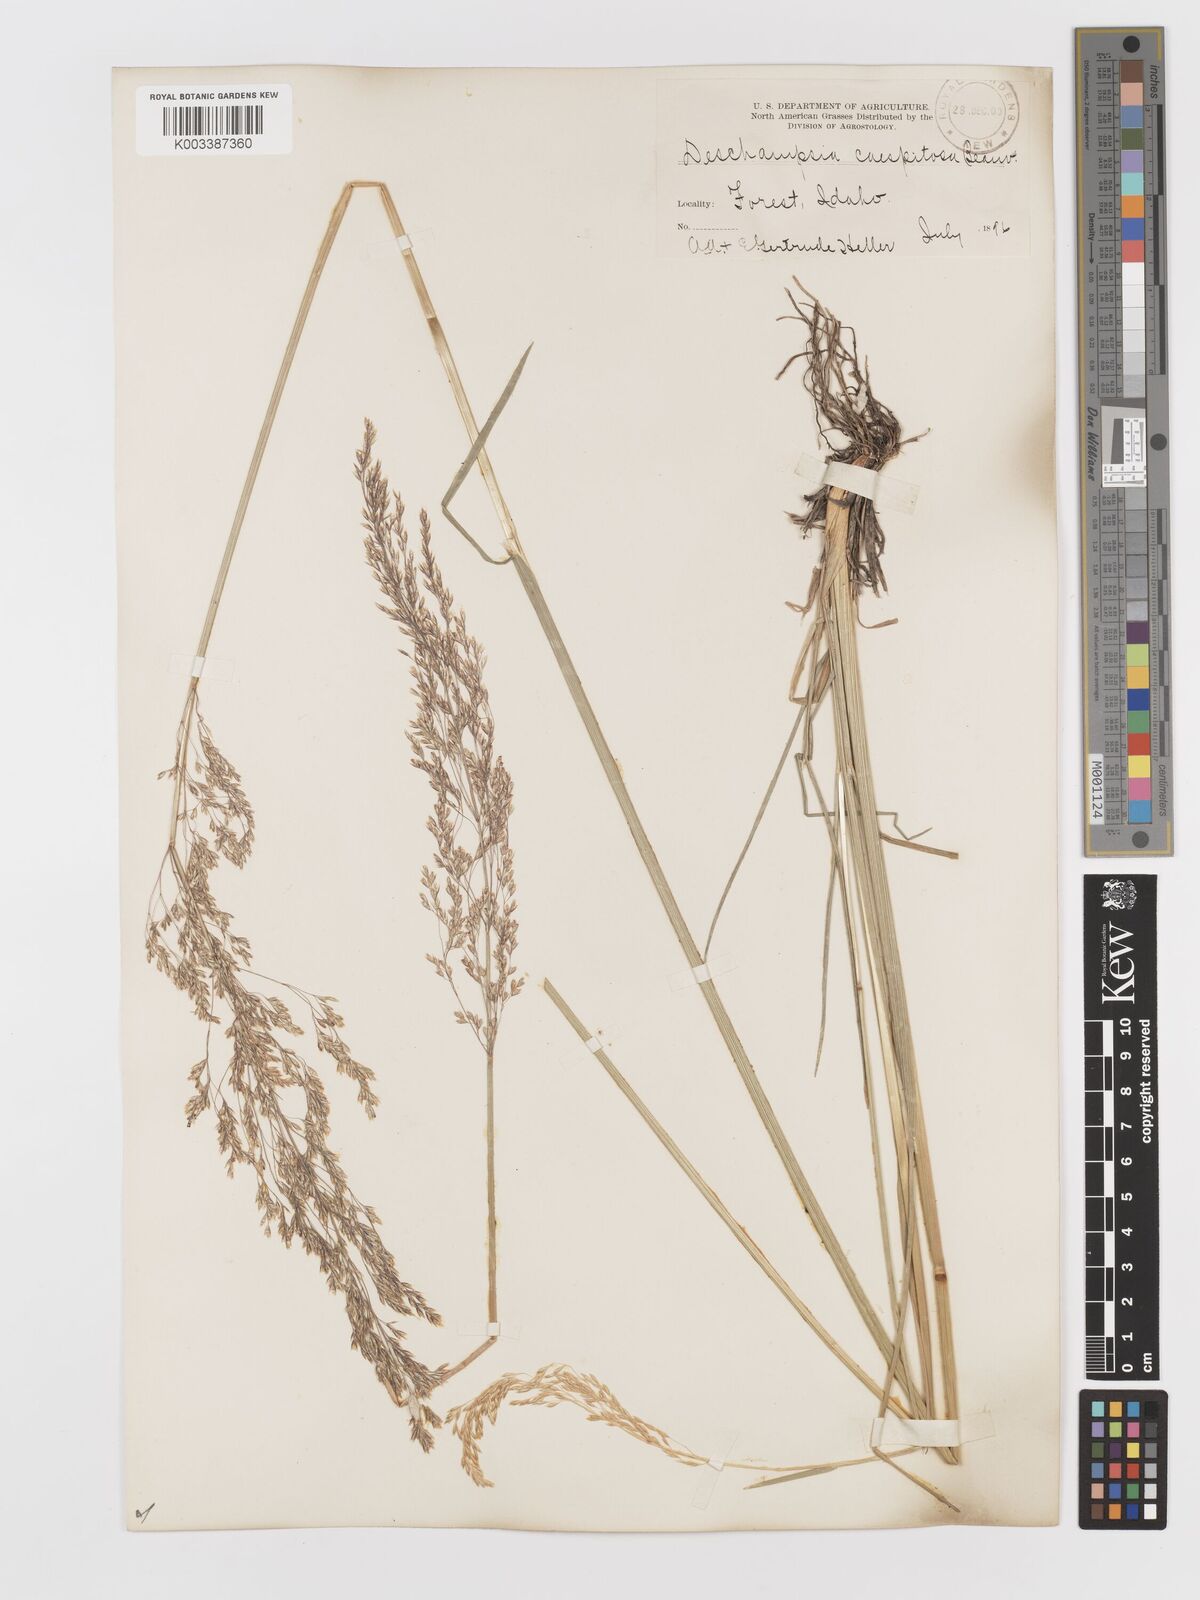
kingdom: Plantae
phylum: Tracheophyta
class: Liliopsida
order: Poales
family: Poaceae
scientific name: Poaceae
